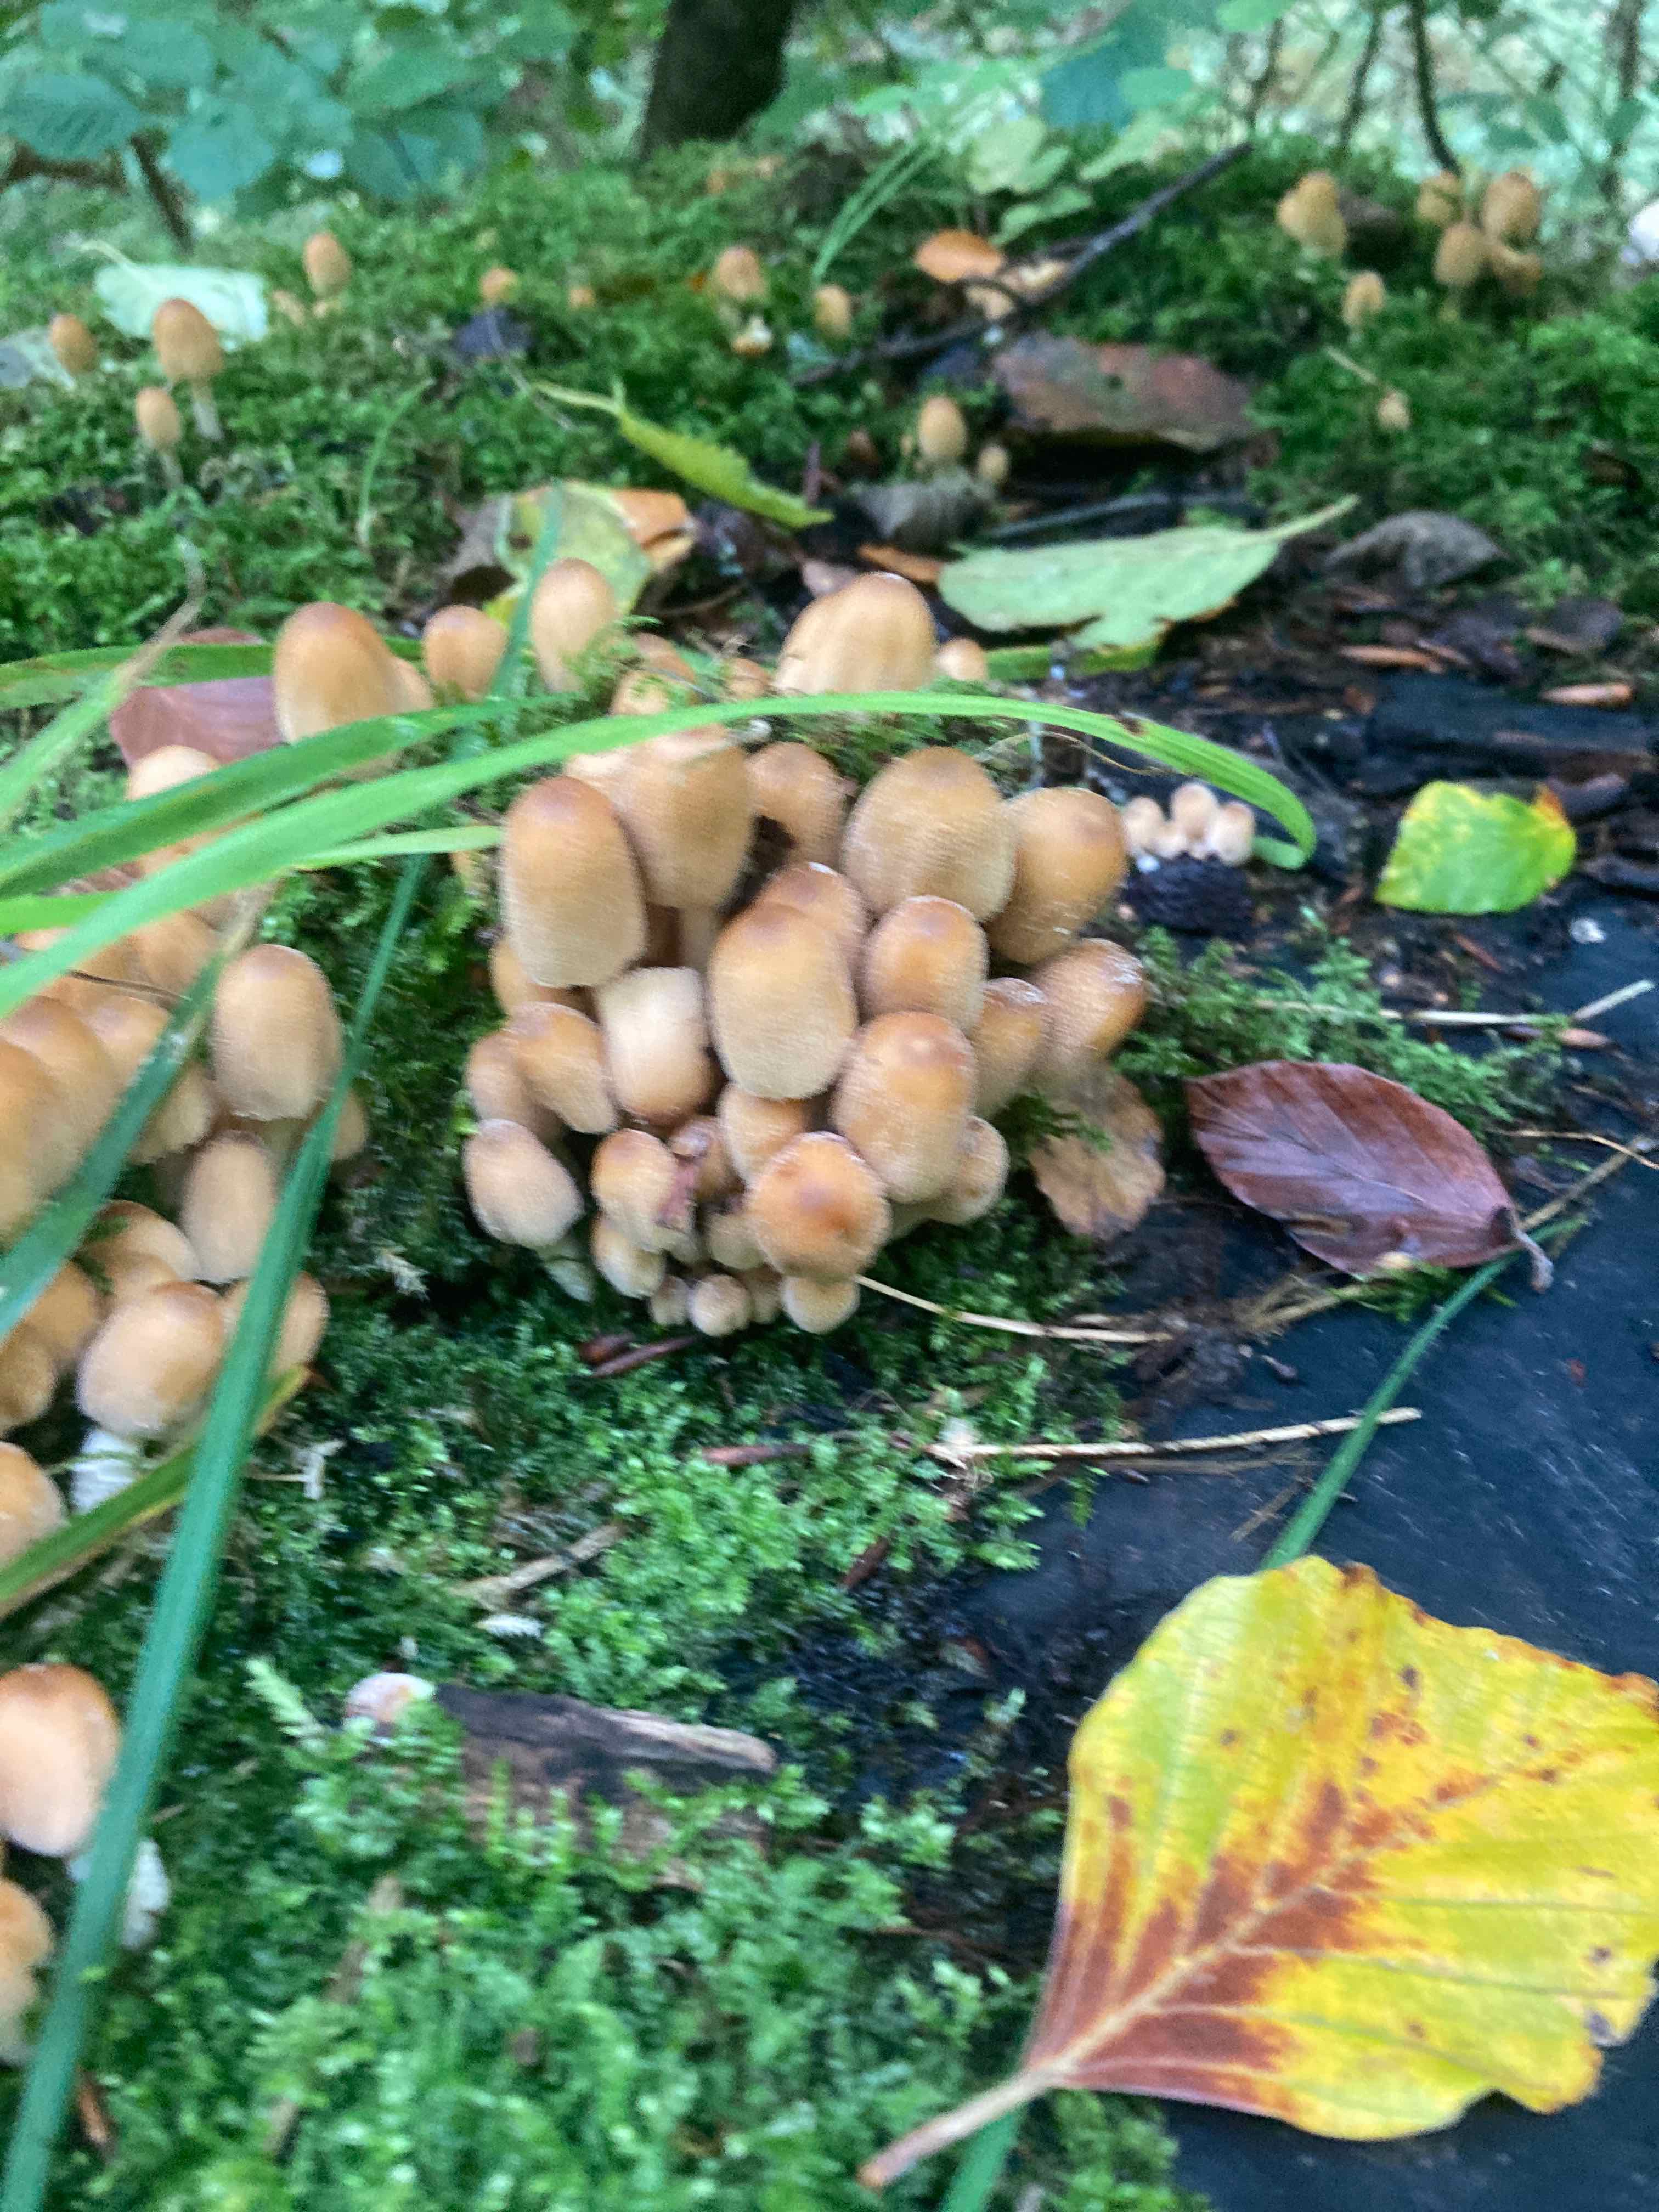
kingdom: Fungi
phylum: Basidiomycota
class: Agaricomycetes
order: Agaricales
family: Psathyrellaceae
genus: Coprinellus
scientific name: Coprinellus micaceus
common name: glimmer-blækhat
